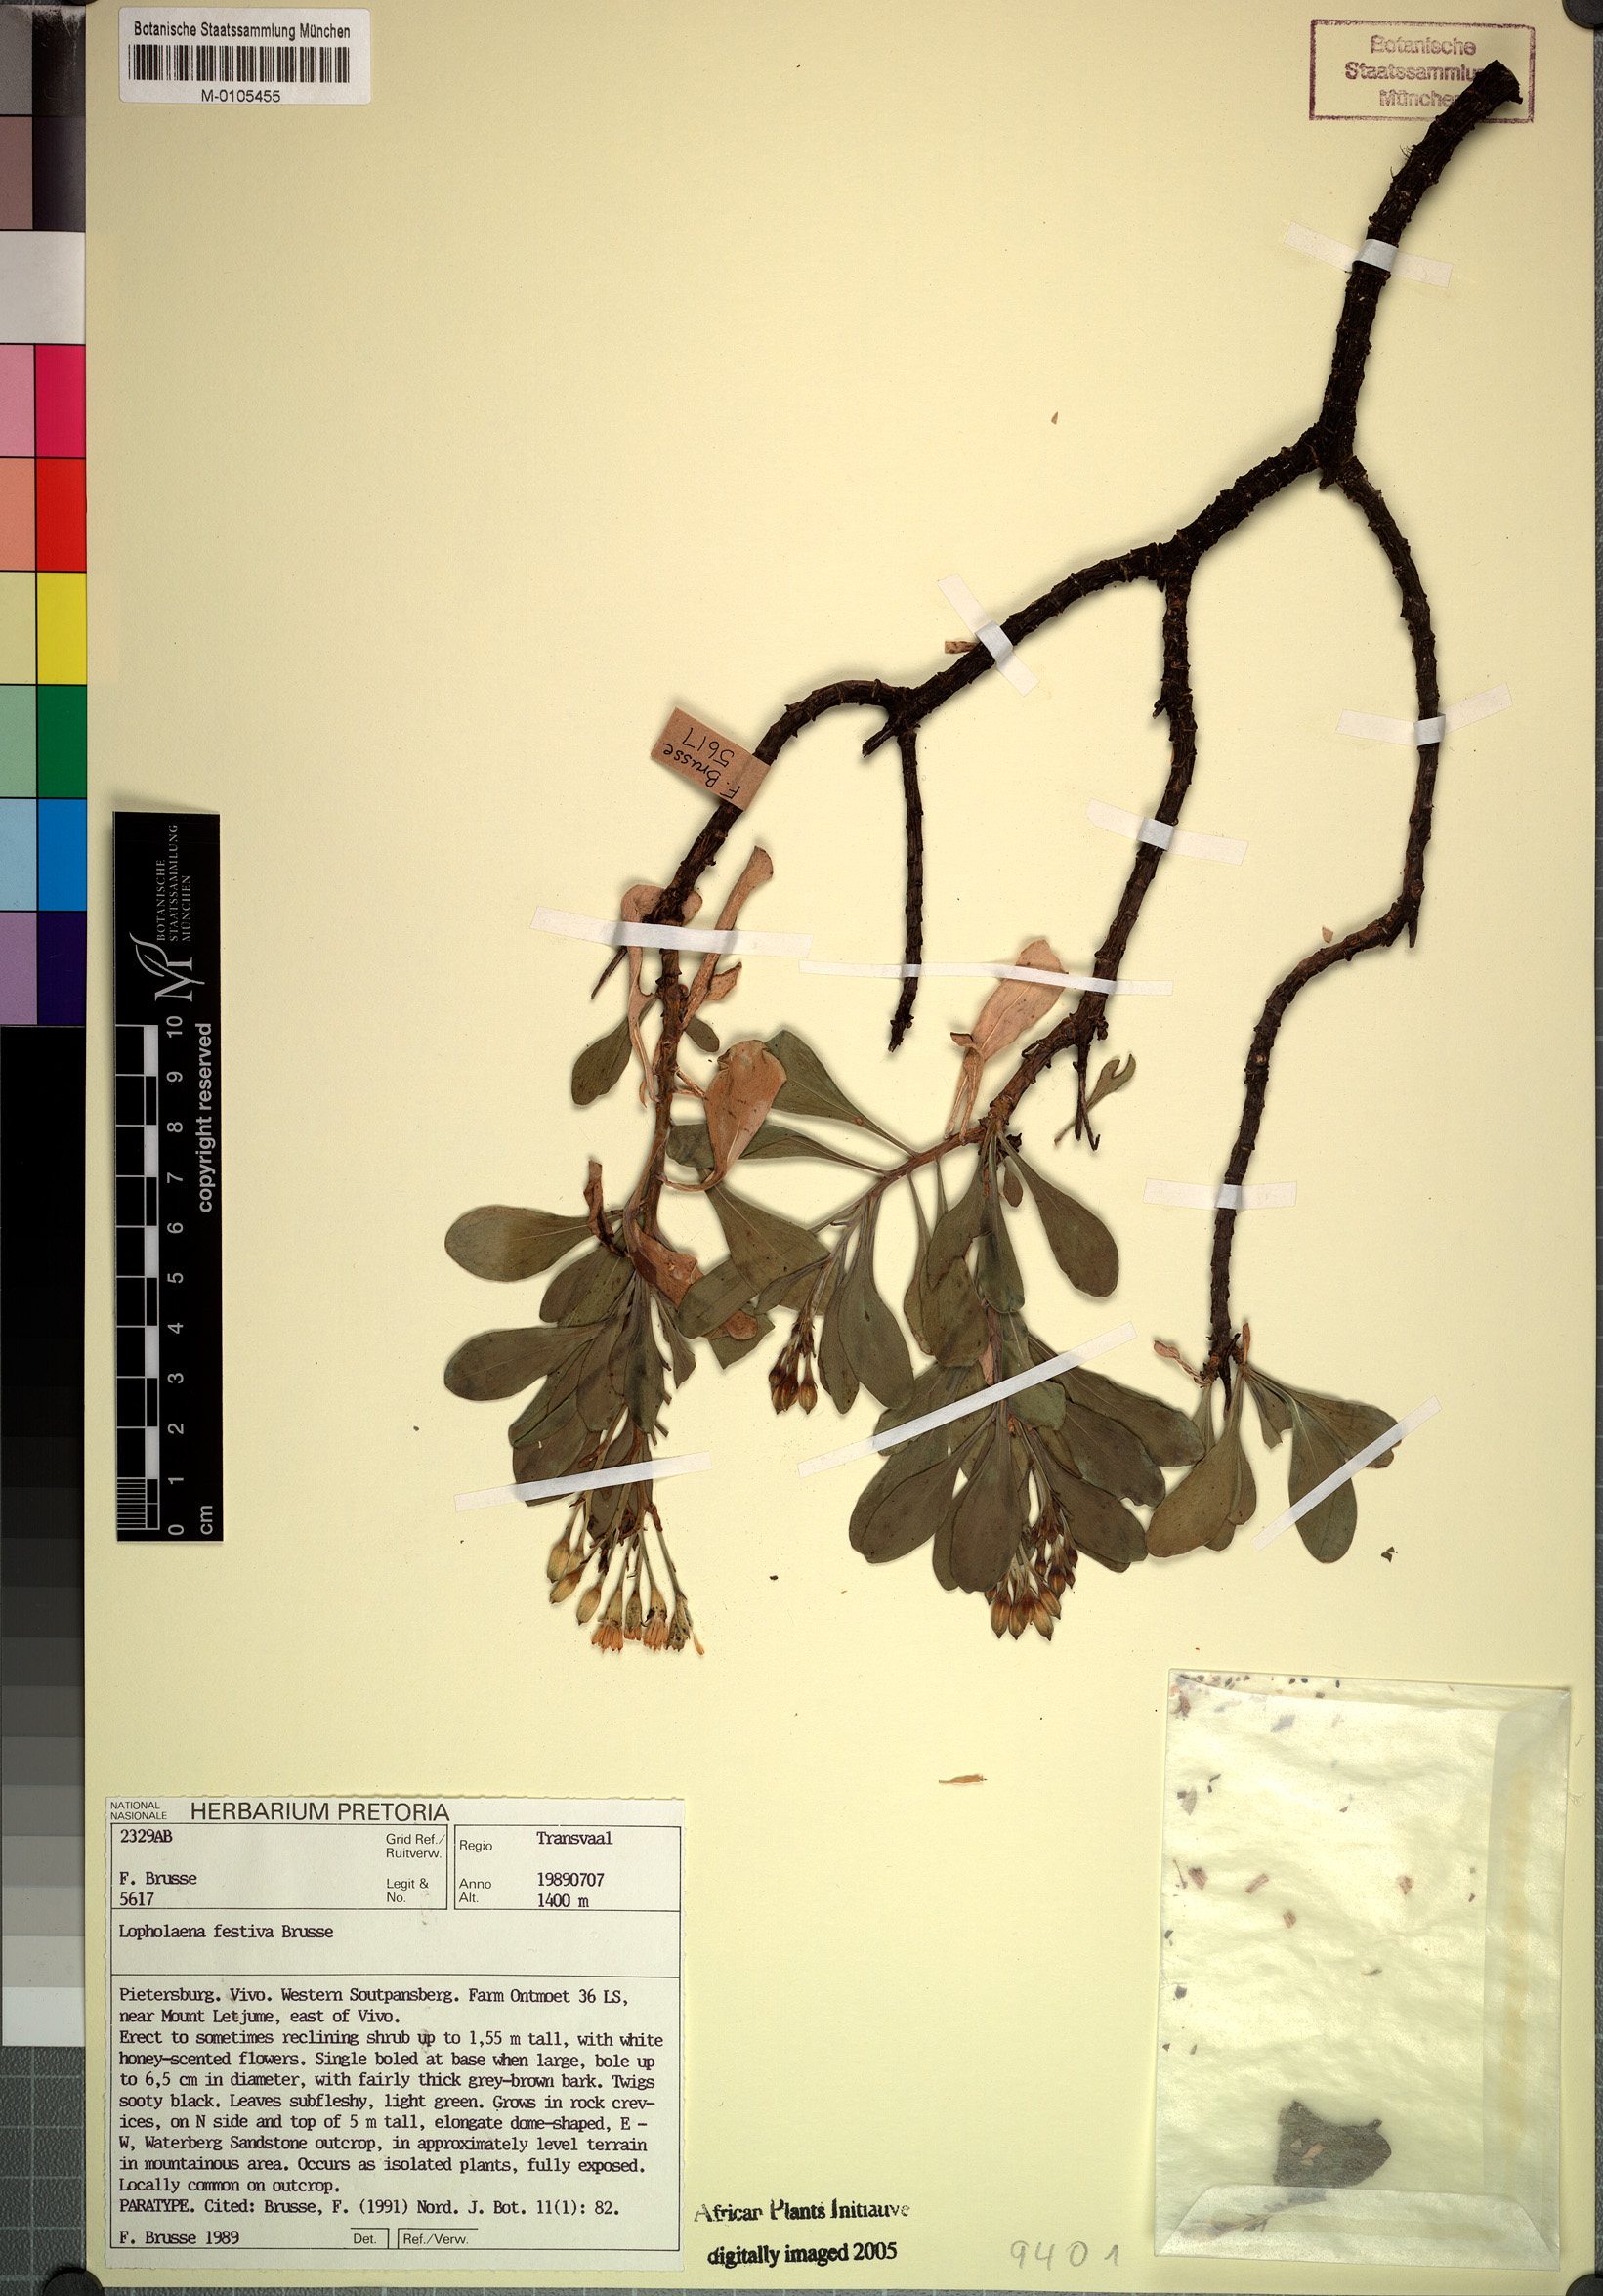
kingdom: Plantae
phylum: Tracheophyta
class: Magnoliopsida
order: Asterales
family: Asteraceae
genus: Lopholaena
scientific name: Lopholaena festiva
